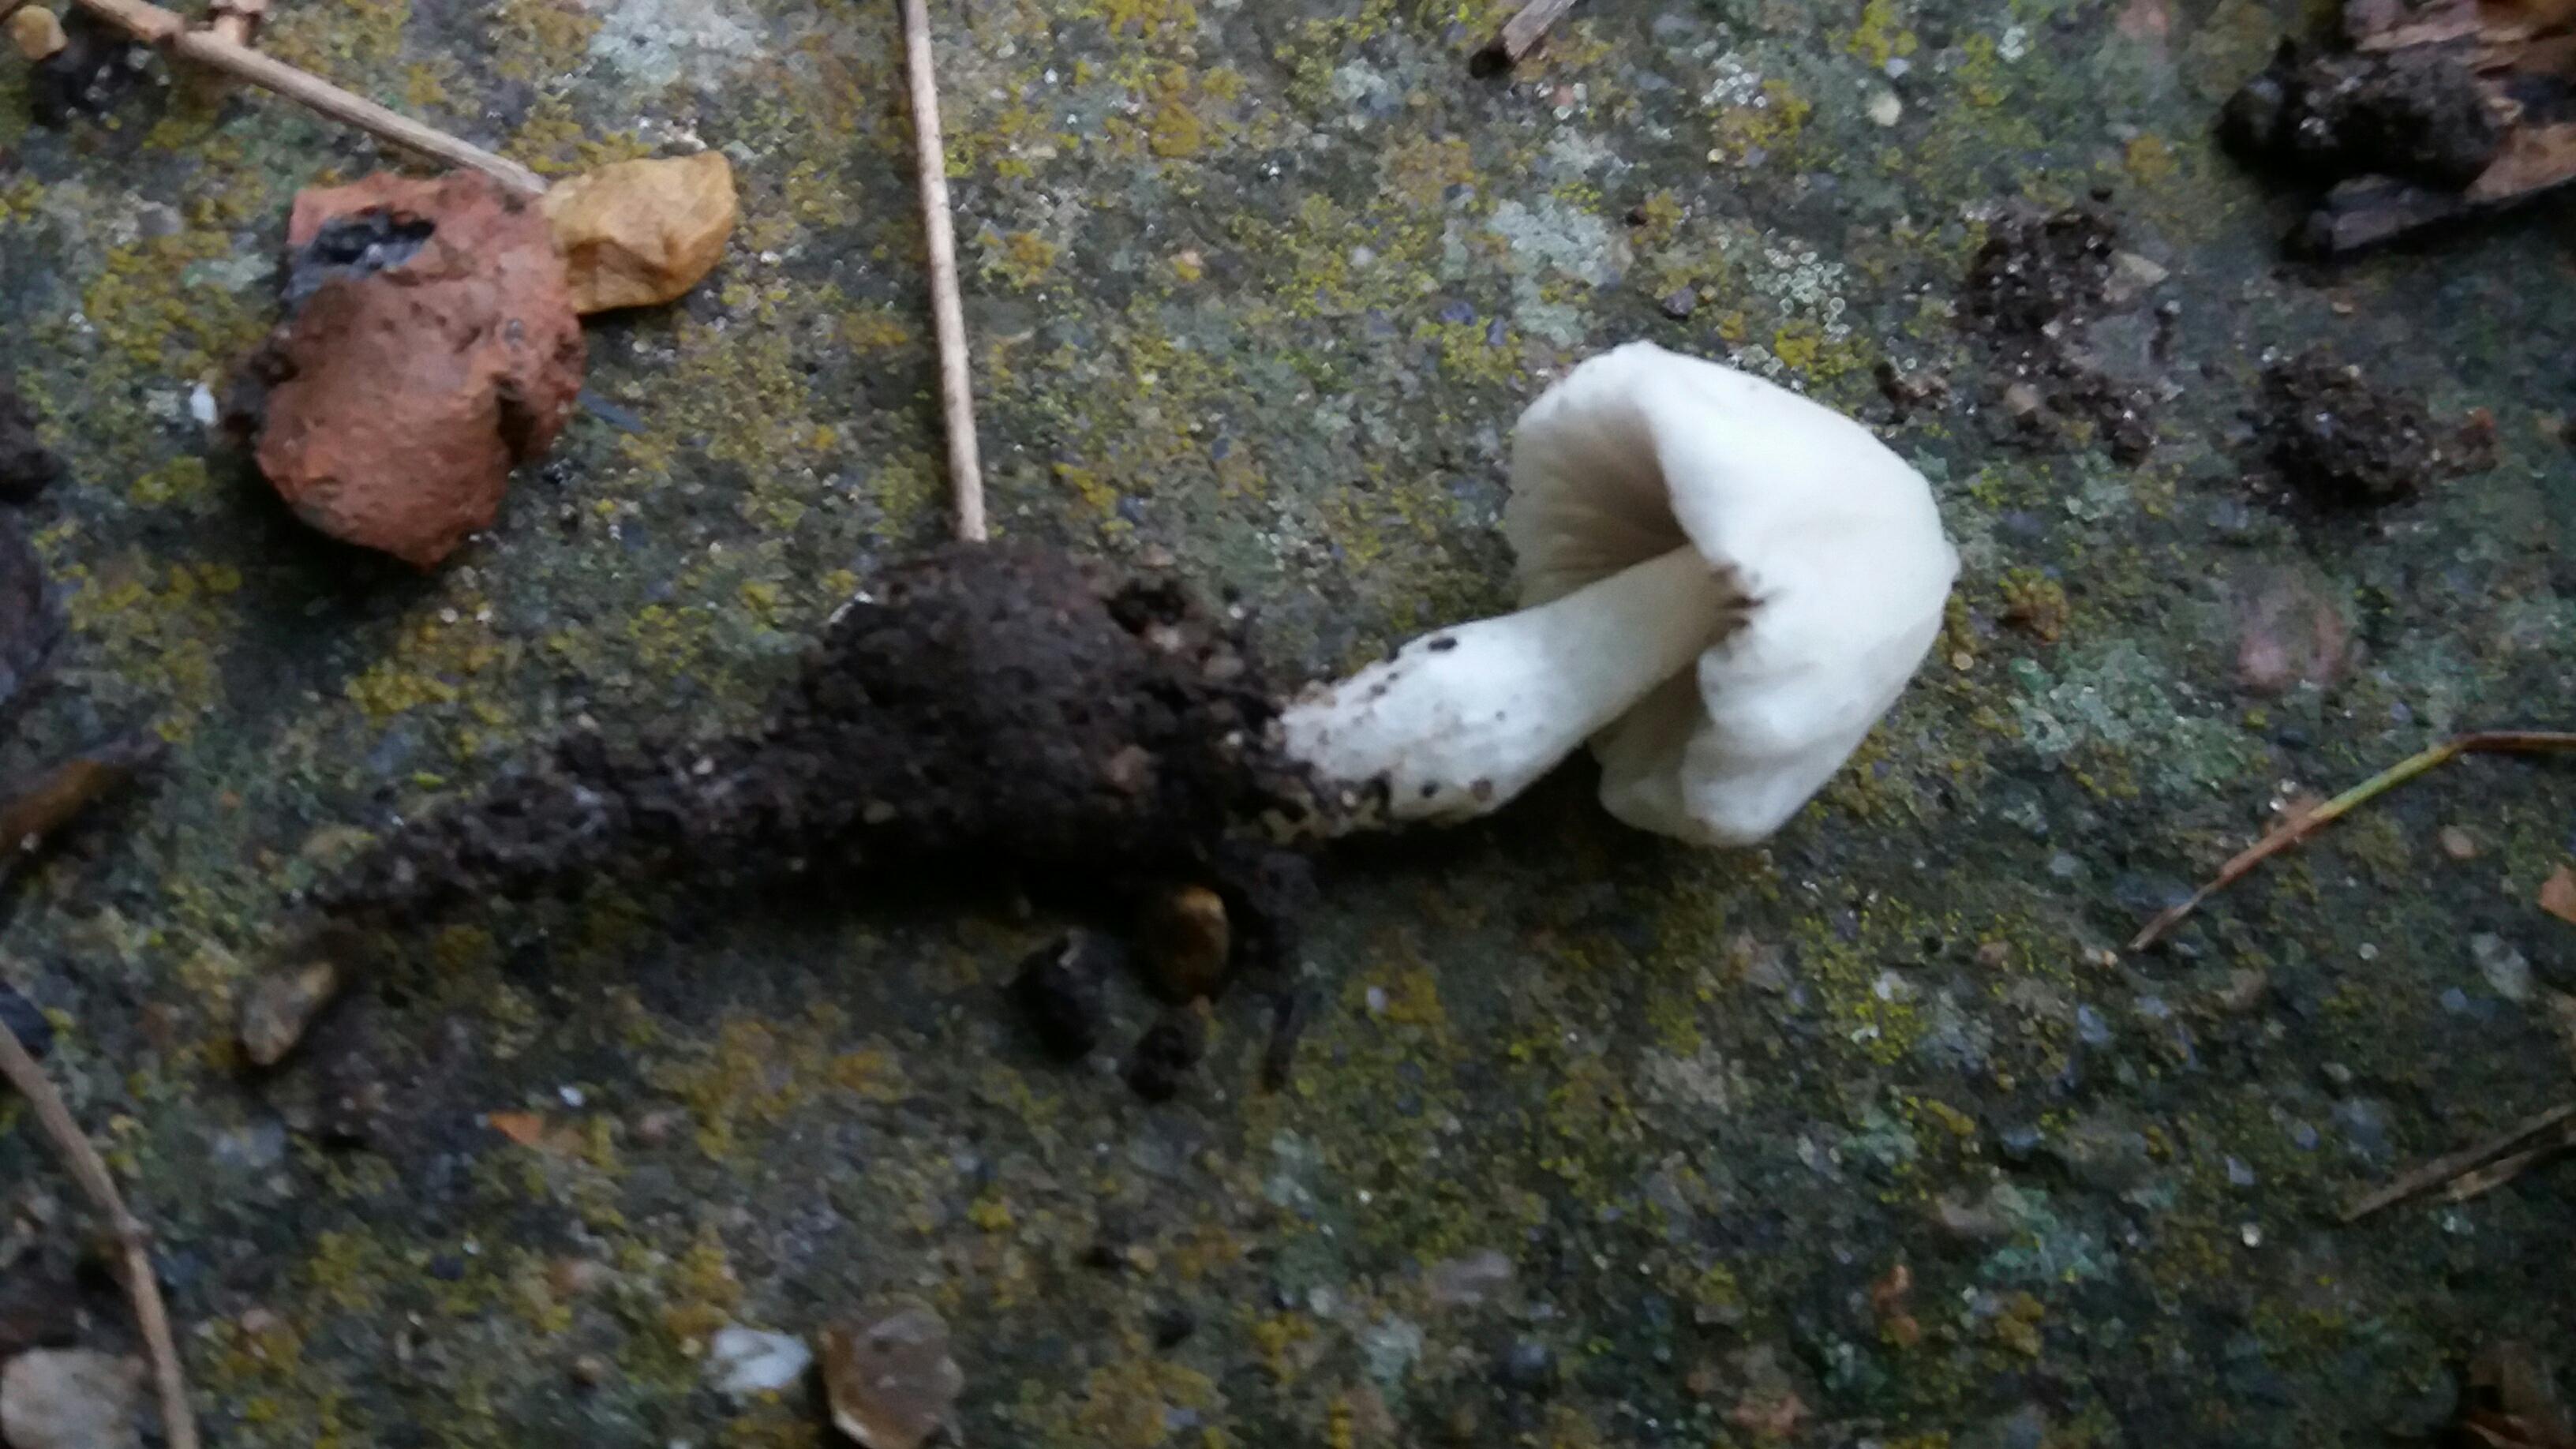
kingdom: Fungi
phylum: Basidiomycota
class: Agaricomycetes
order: Agaricales
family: Psathyrellaceae
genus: Psathyrella
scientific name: Psathyrella
